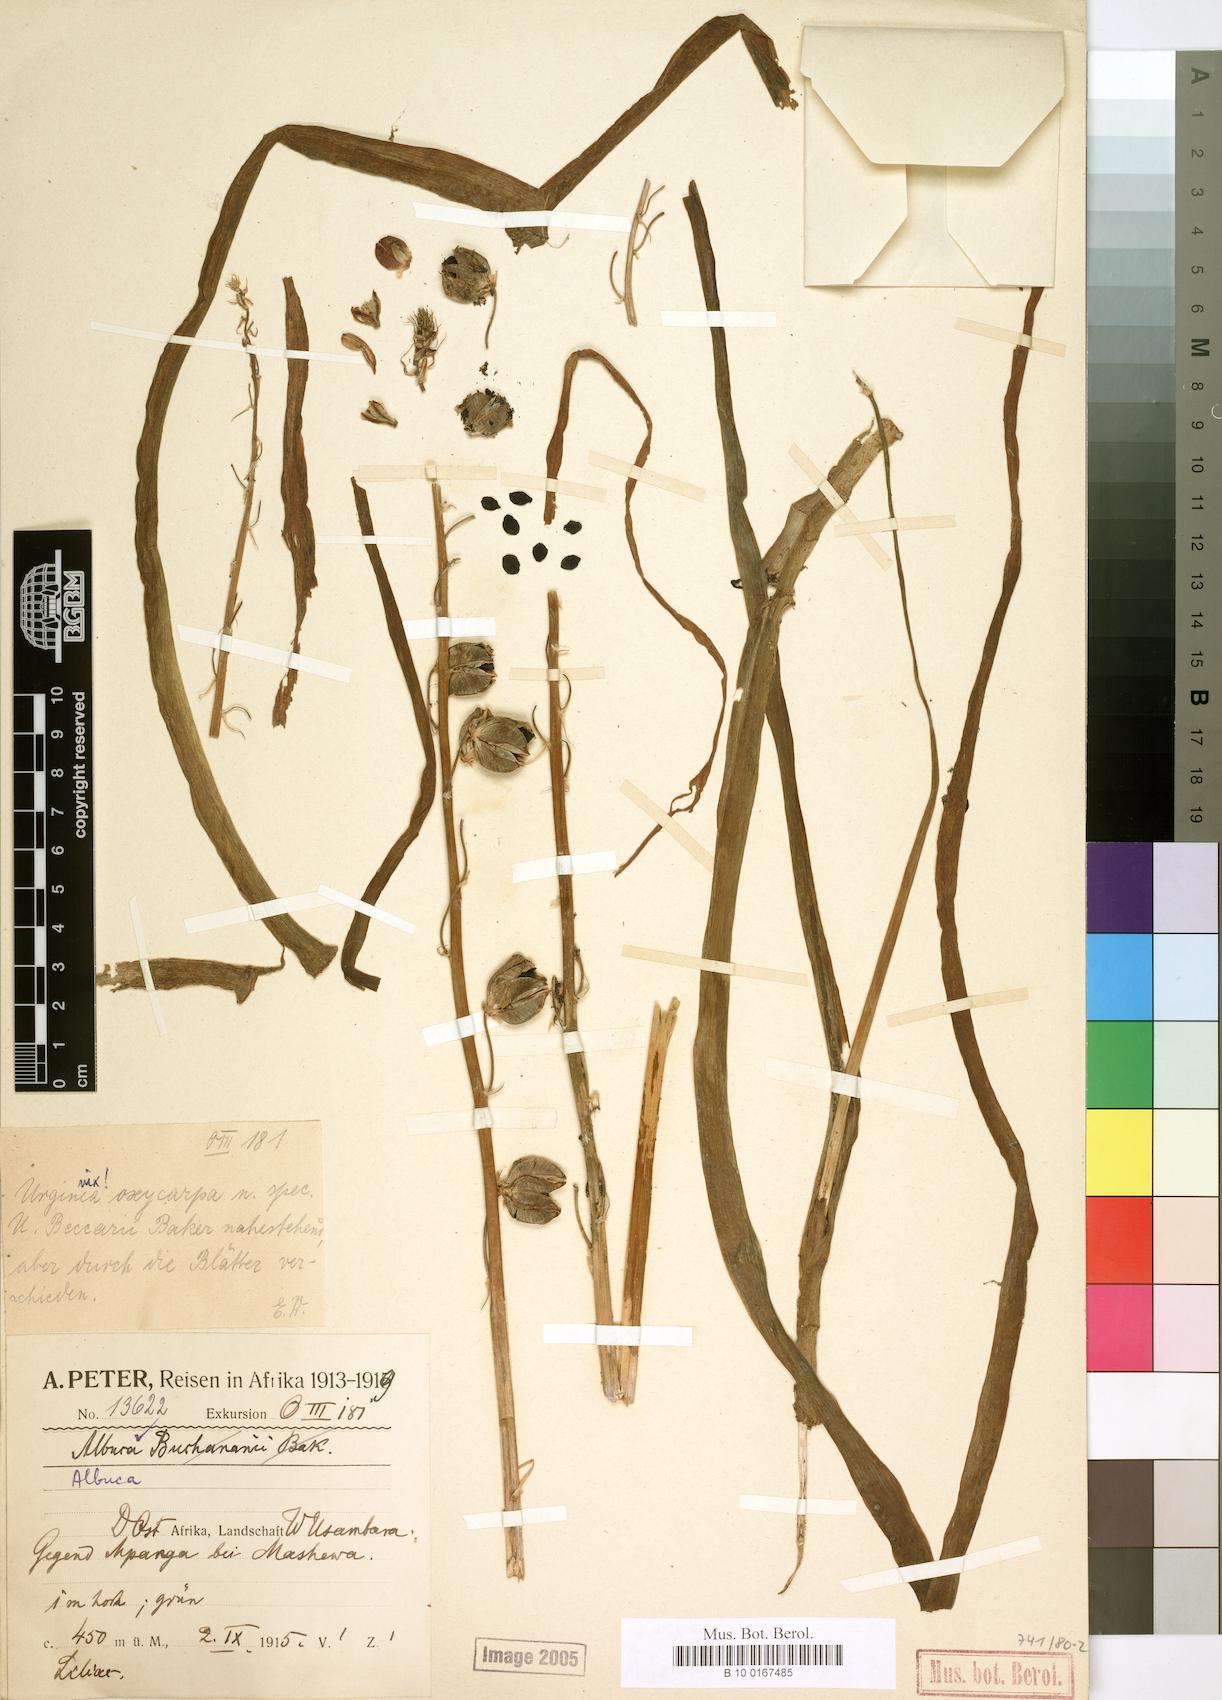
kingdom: Plantae
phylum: Tracheophyta
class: Liliopsida
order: Asparagales
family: Asparagaceae
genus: Drimia
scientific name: Drimia
